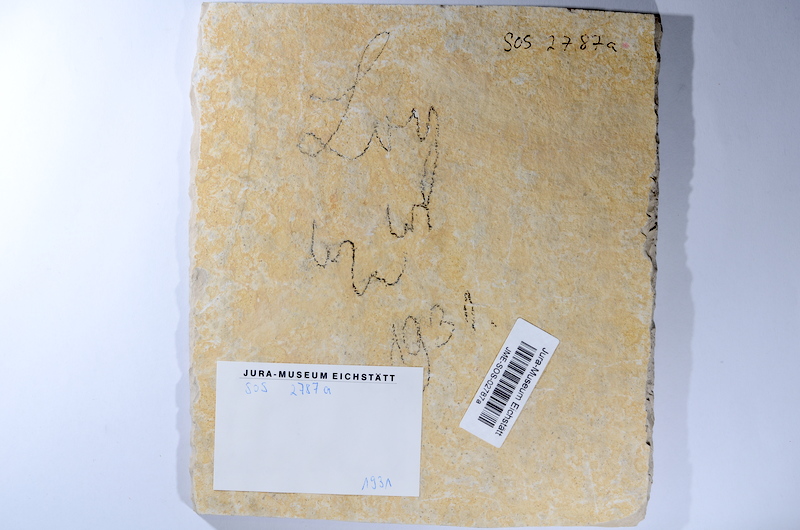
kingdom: Animalia
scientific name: Animalia
